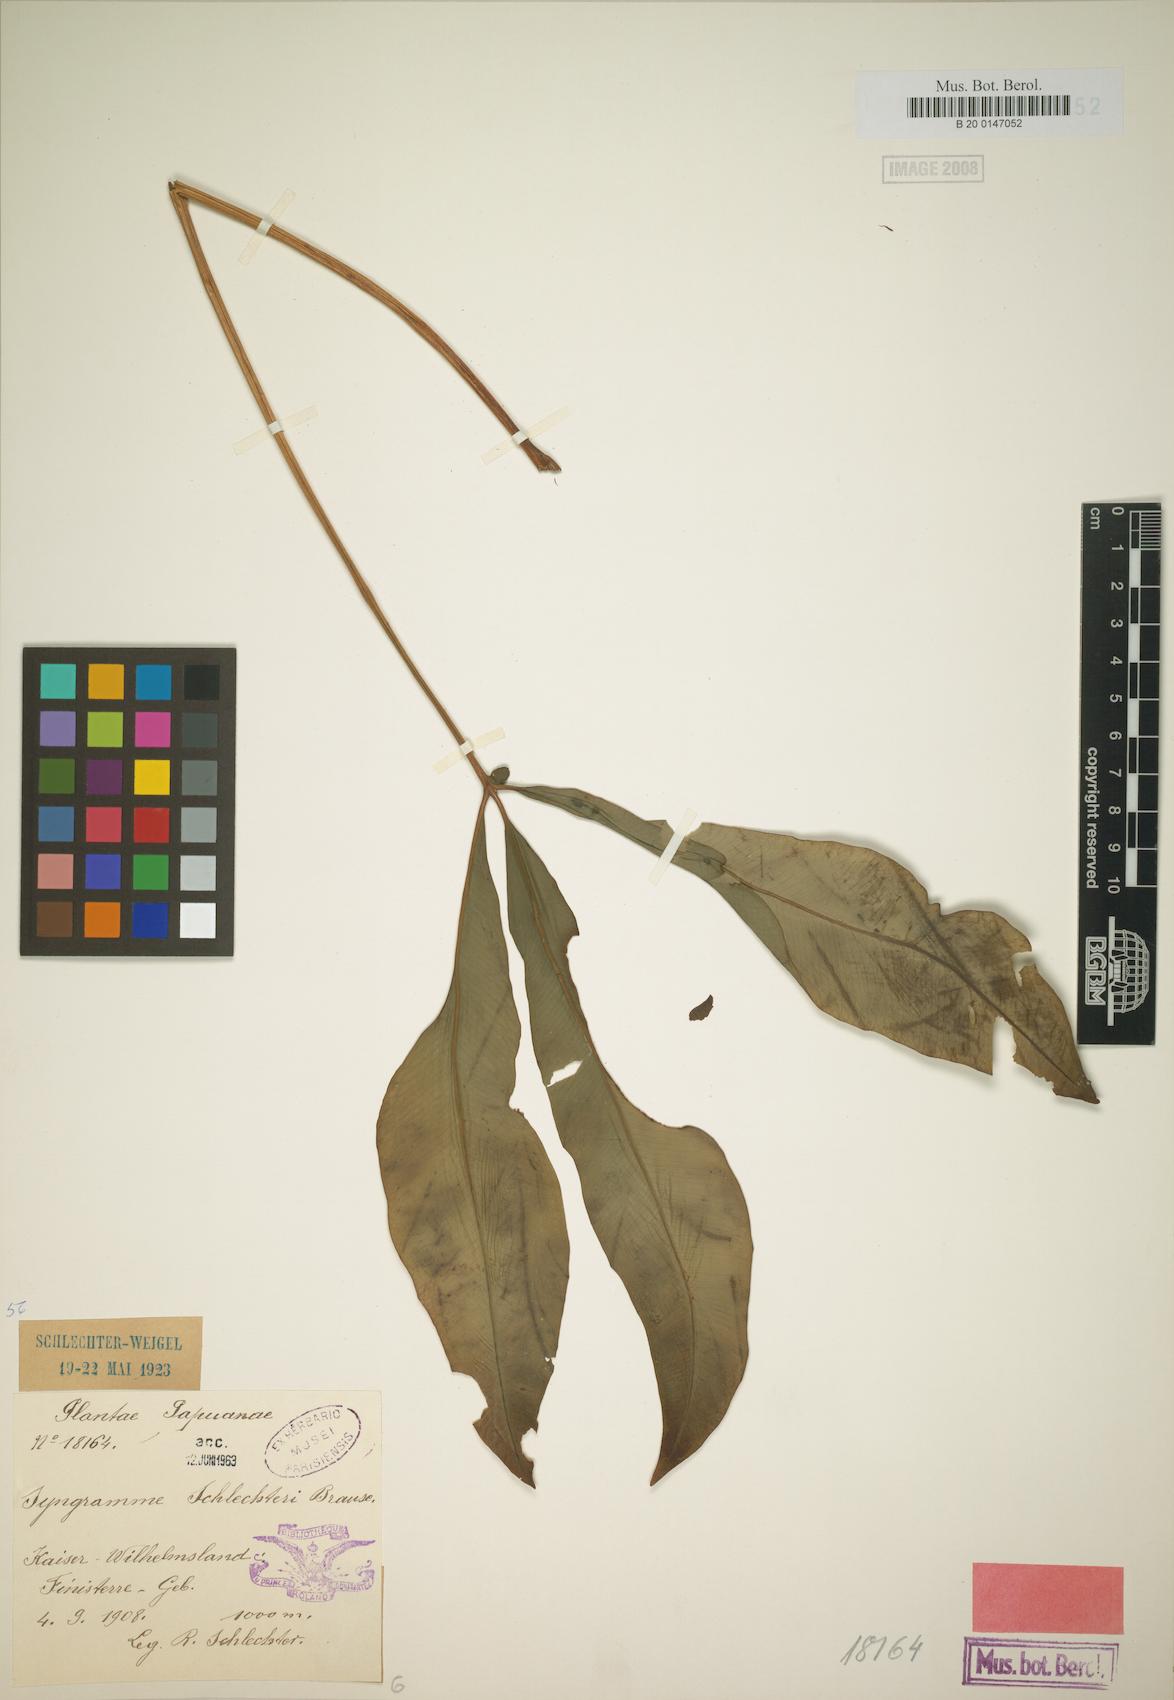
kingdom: Plantae
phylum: Tracheophyta
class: Polypodiopsida
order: Polypodiales
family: Pteridaceae
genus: Syngramma
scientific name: Syngramma quinata
